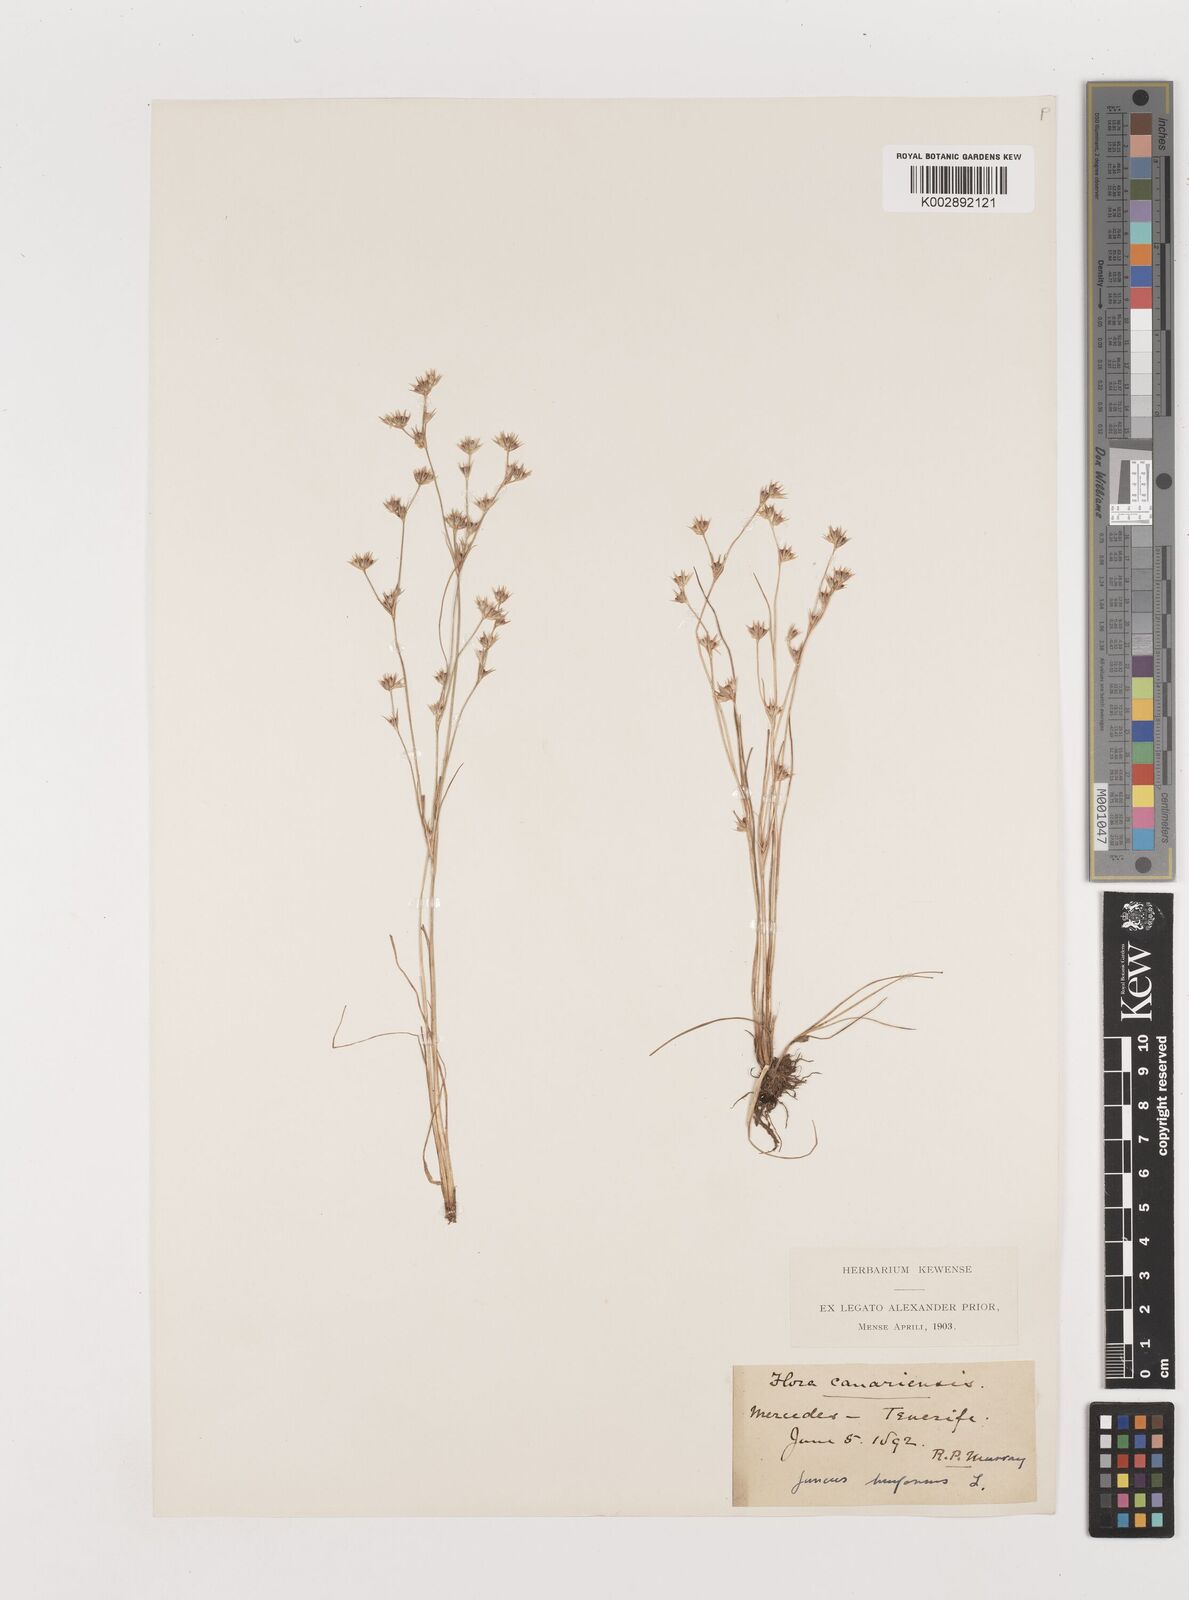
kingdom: Plantae
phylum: Tracheophyta
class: Liliopsida
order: Poales
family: Juncaceae
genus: Juncus
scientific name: Juncus bufonius
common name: Toad rush
